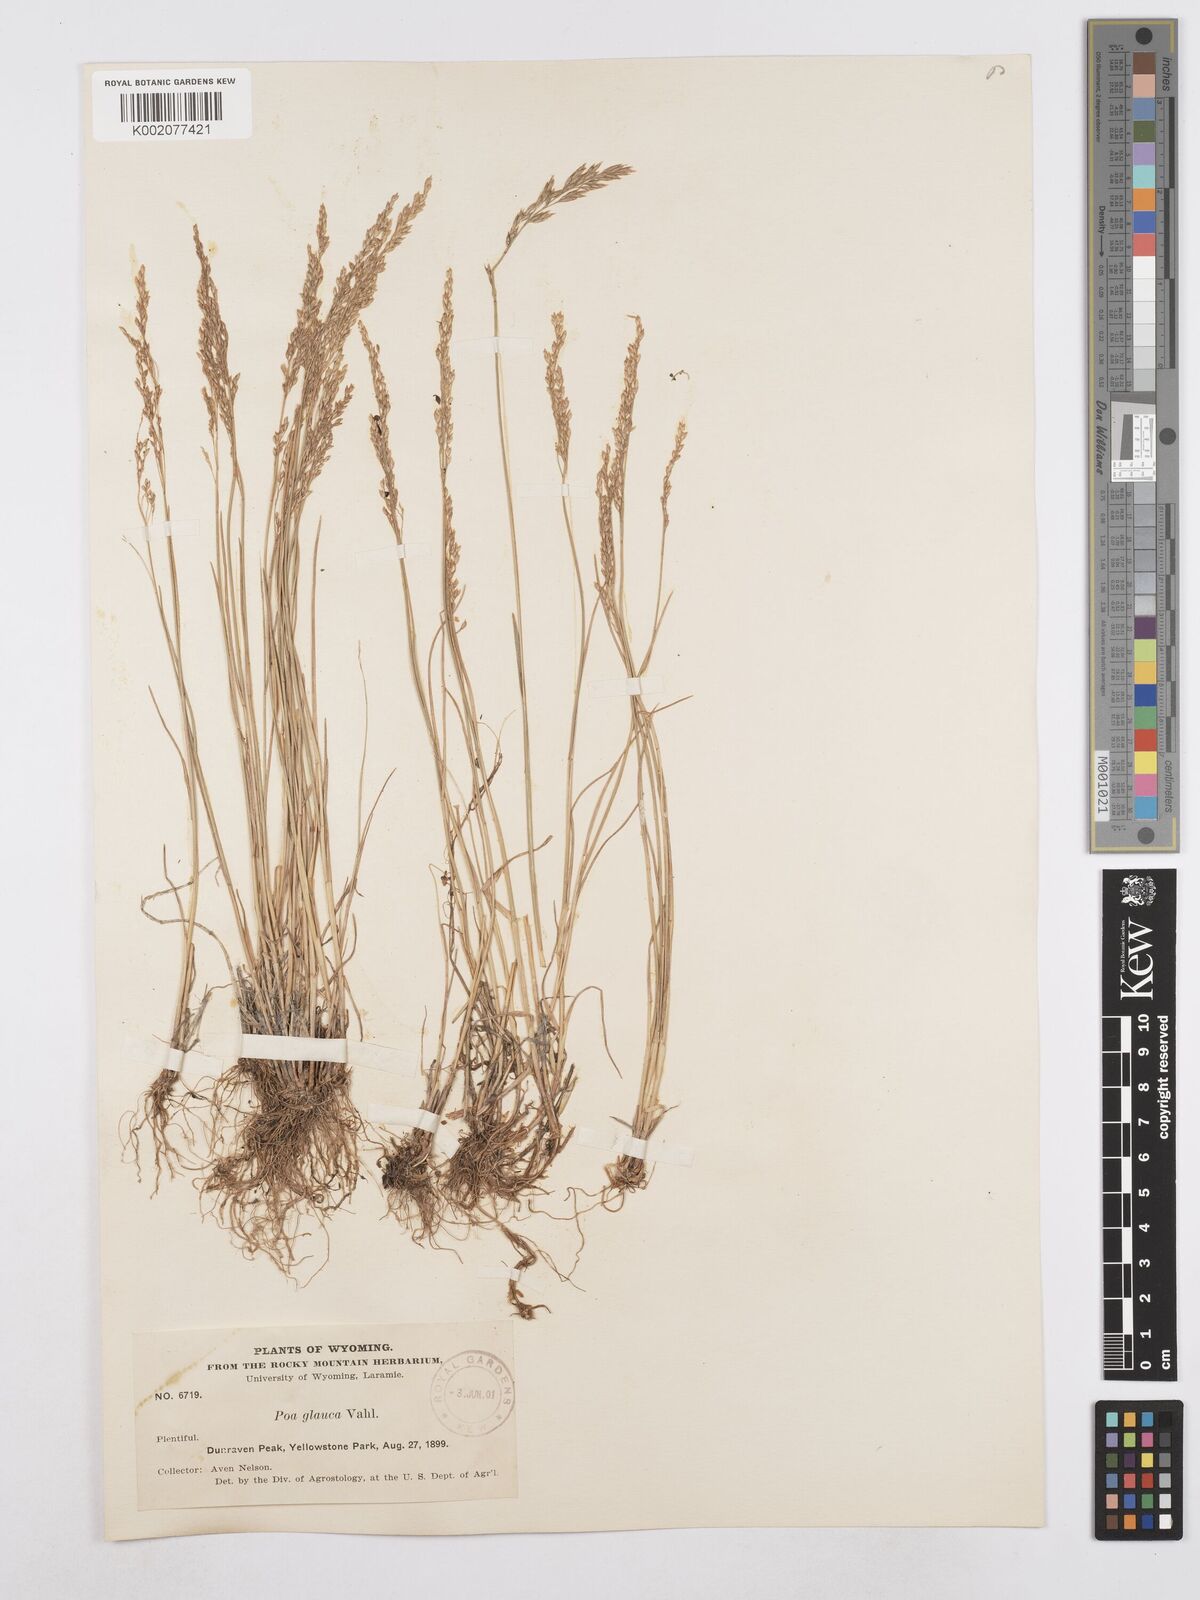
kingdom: Plantae
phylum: Tracheophyta
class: Liliopsida
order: Poales
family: Poaceae
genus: Poa
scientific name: Poa glauca
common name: Glaucous bluegrass
